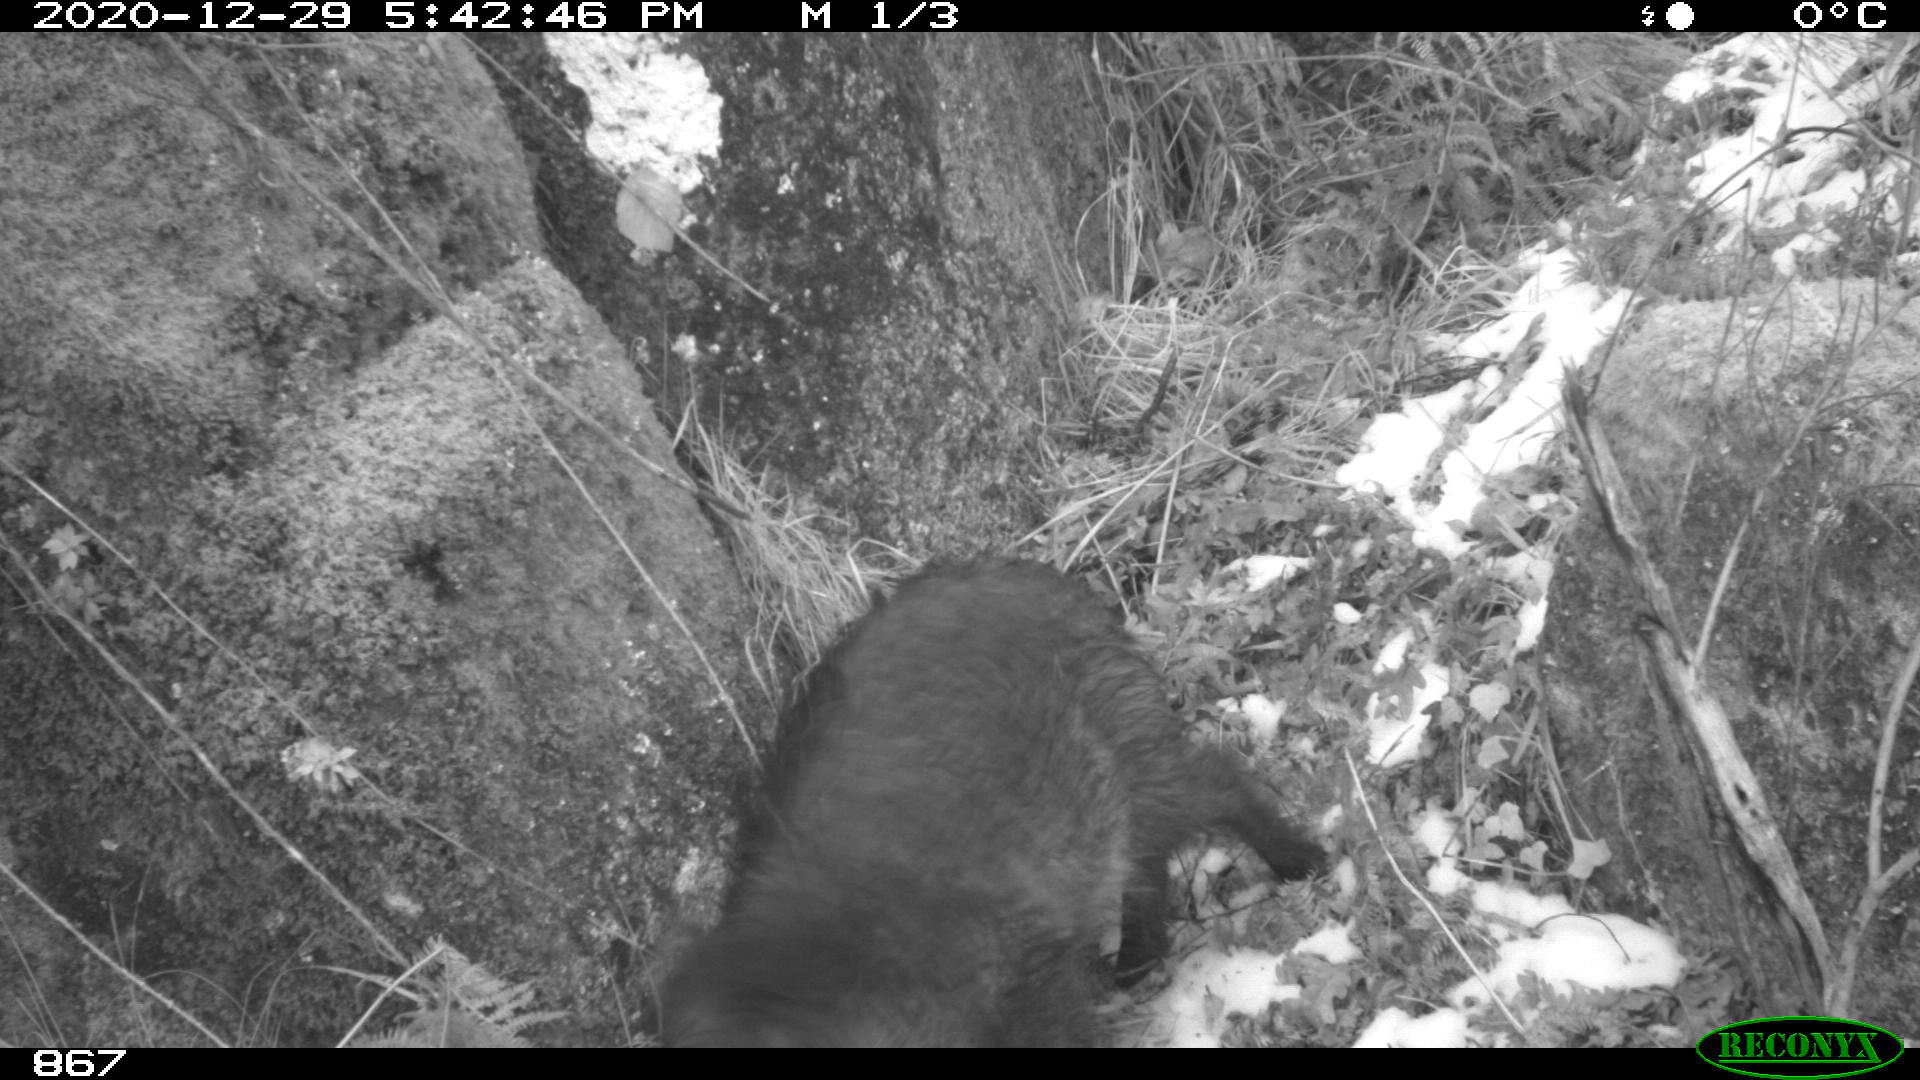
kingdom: Animalia
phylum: Chordata
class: Mammalia
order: Artiodactyla
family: Suidae
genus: Sus
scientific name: Sus scrofa
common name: Wild boar
